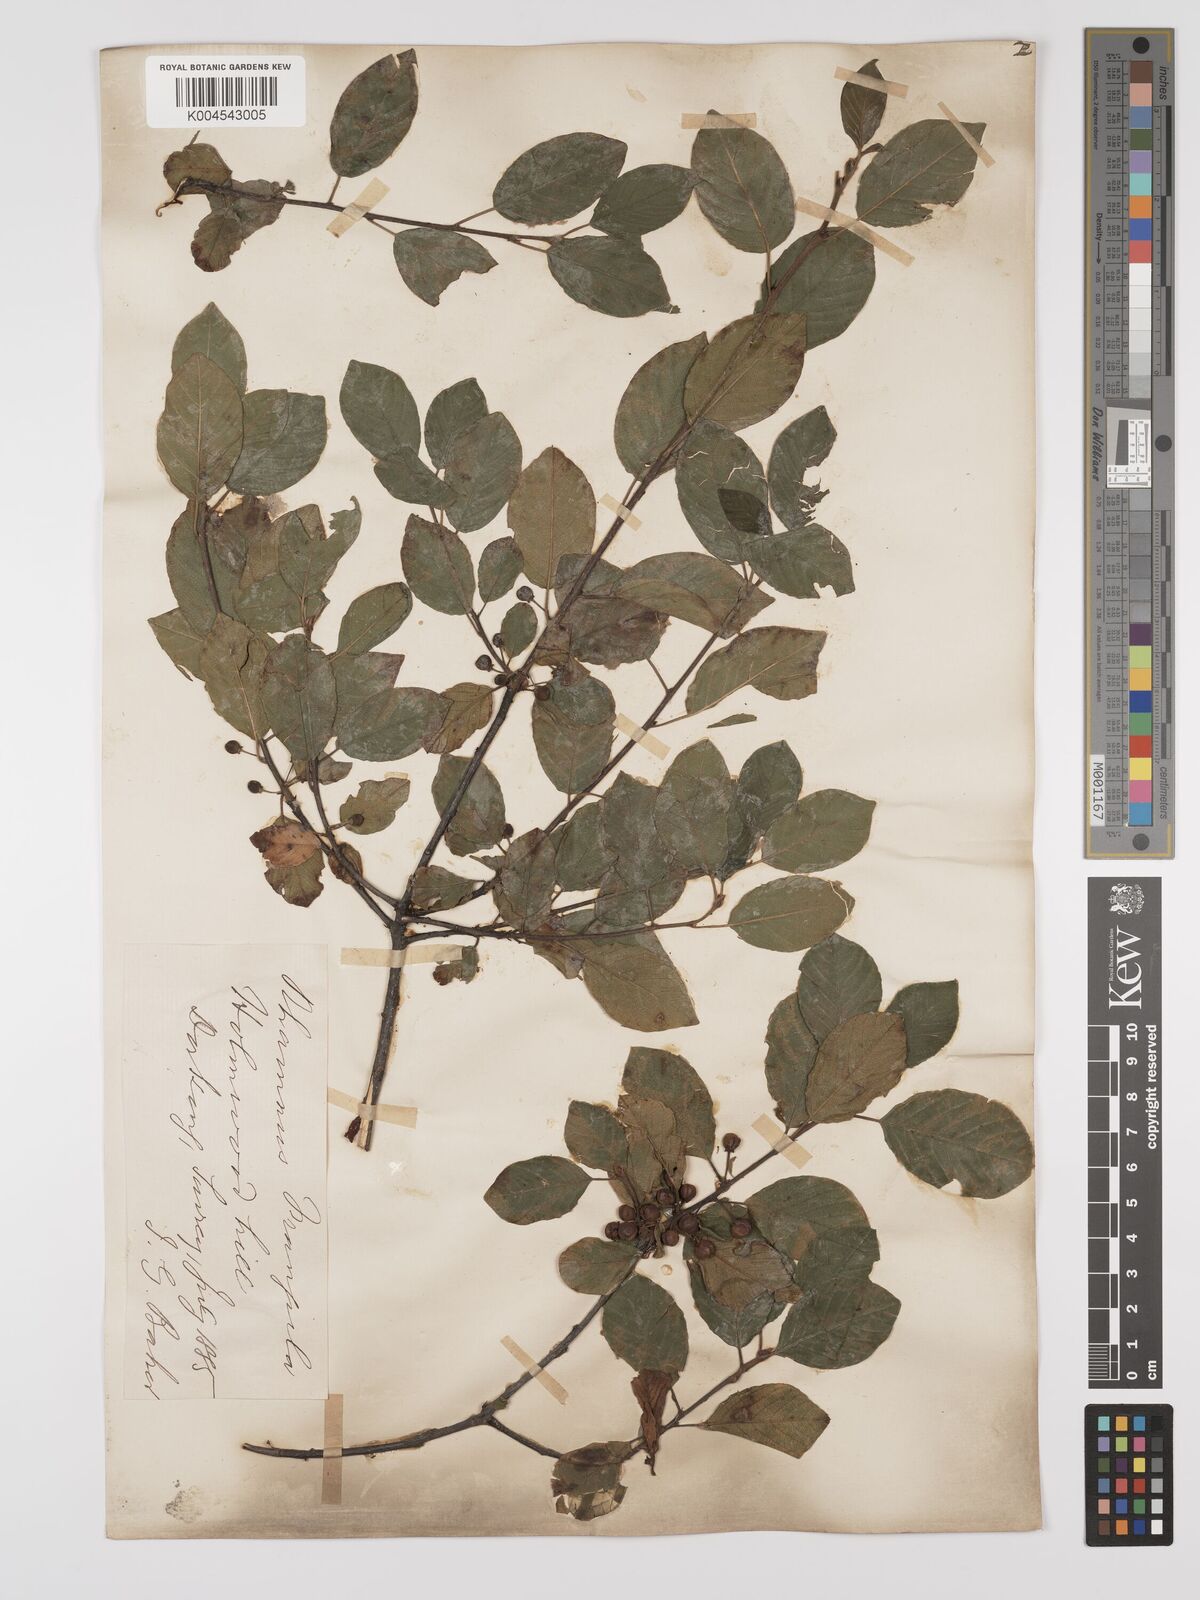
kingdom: Plantae
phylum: Tracheophyta
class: Magnoliopsida
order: Rosales
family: Rhamnaceae
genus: Frangula
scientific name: Frangula alnus
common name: Alder buckthorn
